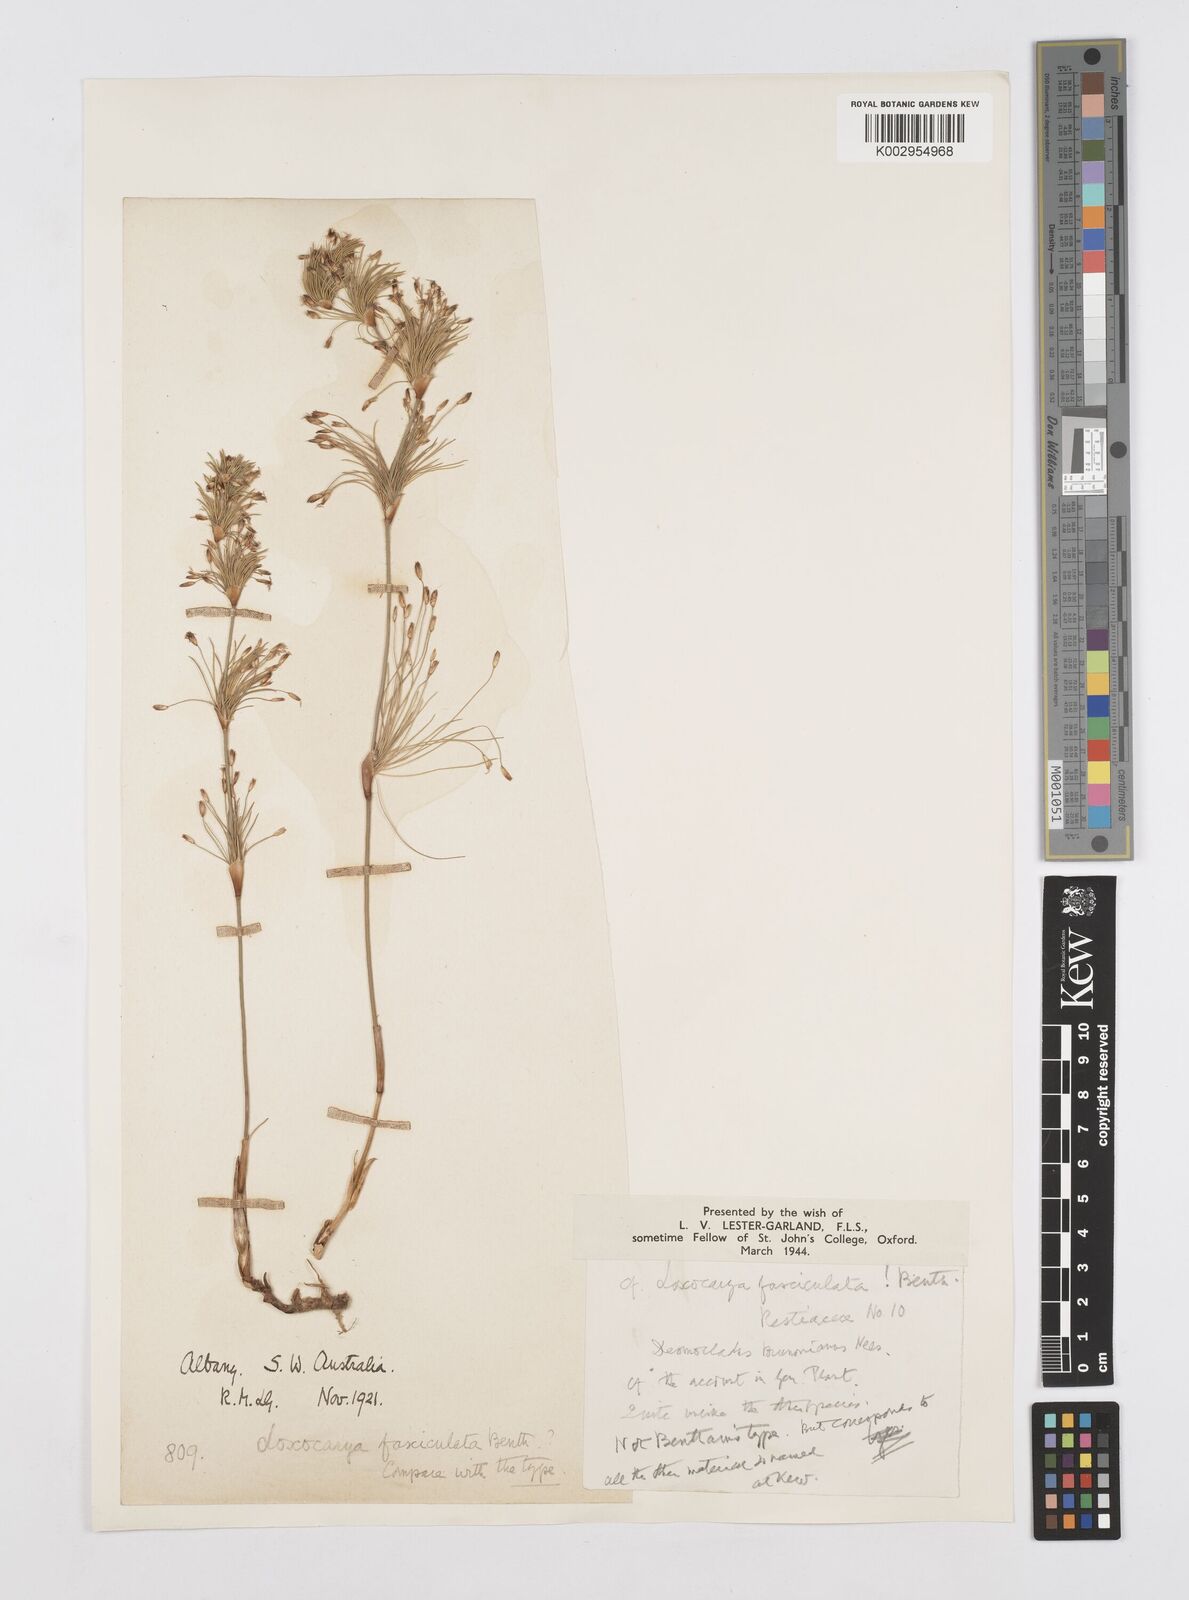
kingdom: Plantae
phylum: Tracheophyta
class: Liliopsida
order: Poales
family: Restionaceae
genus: Desmocladus
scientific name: Desmocladus fasciculatus
